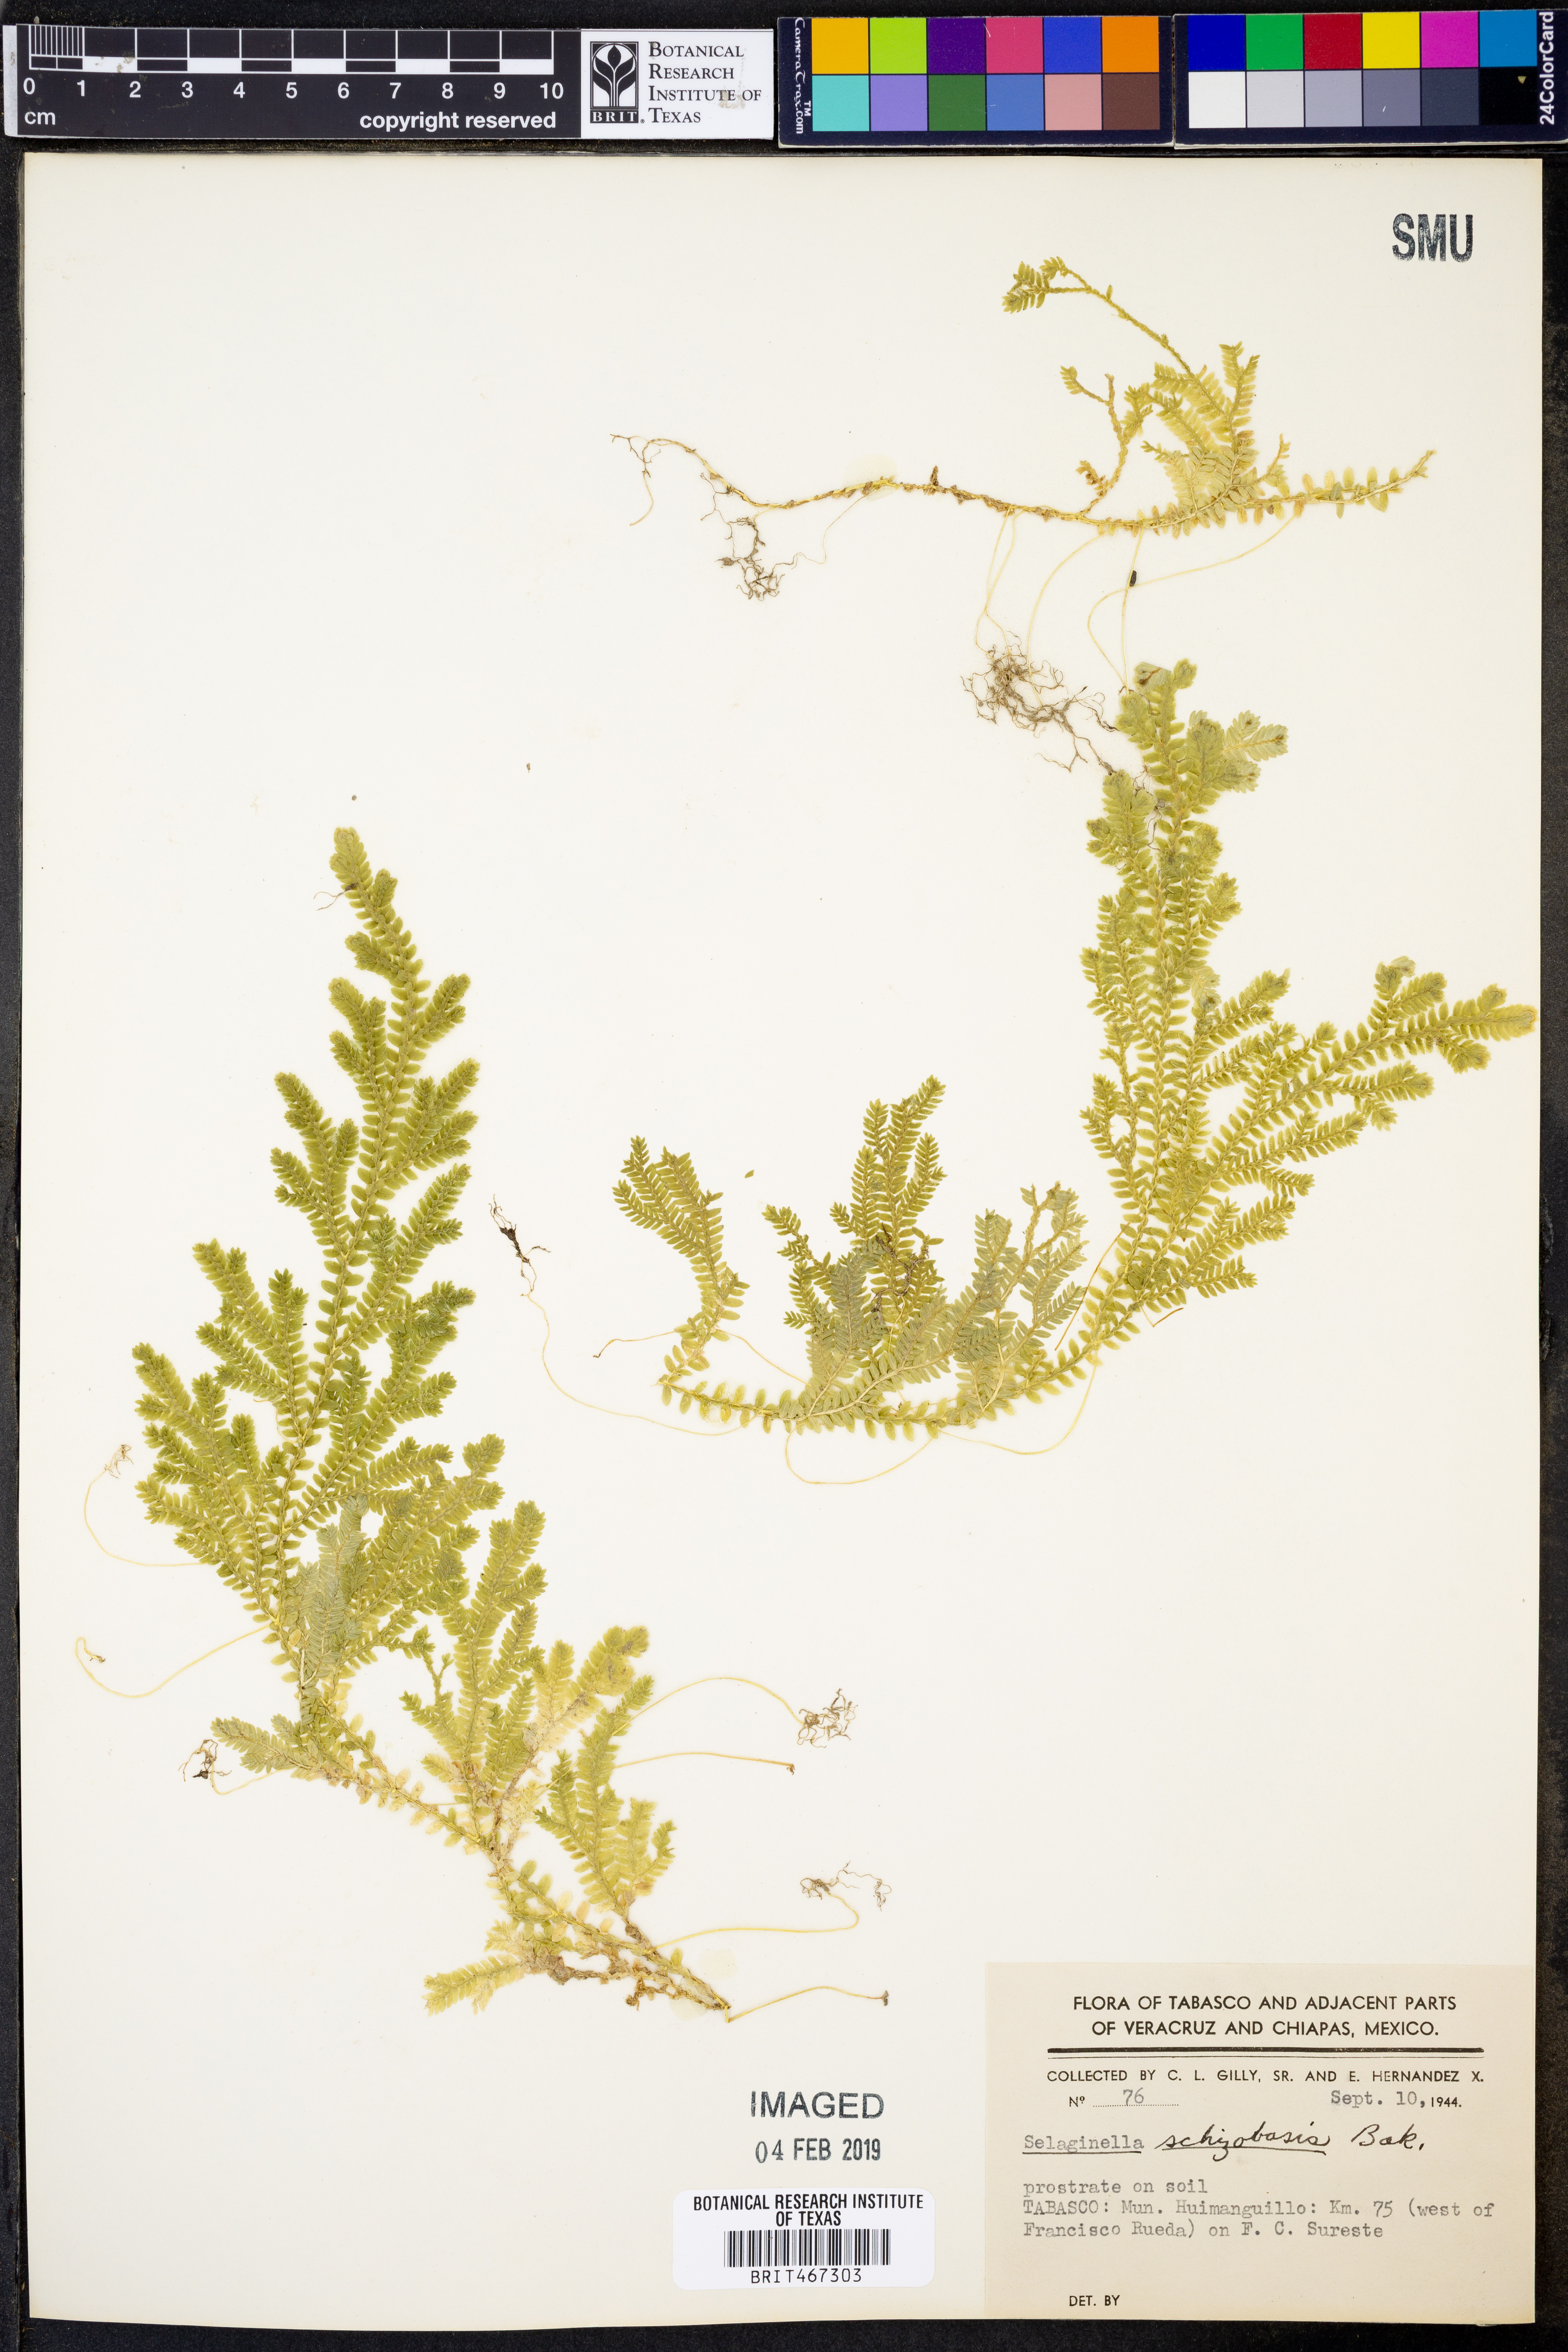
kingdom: Plantae
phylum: Tracheophyta
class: Lycopodiopsida
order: Selaginellales
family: Selaginellaceae
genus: Selaginella
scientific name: Selaginella schizobasis
